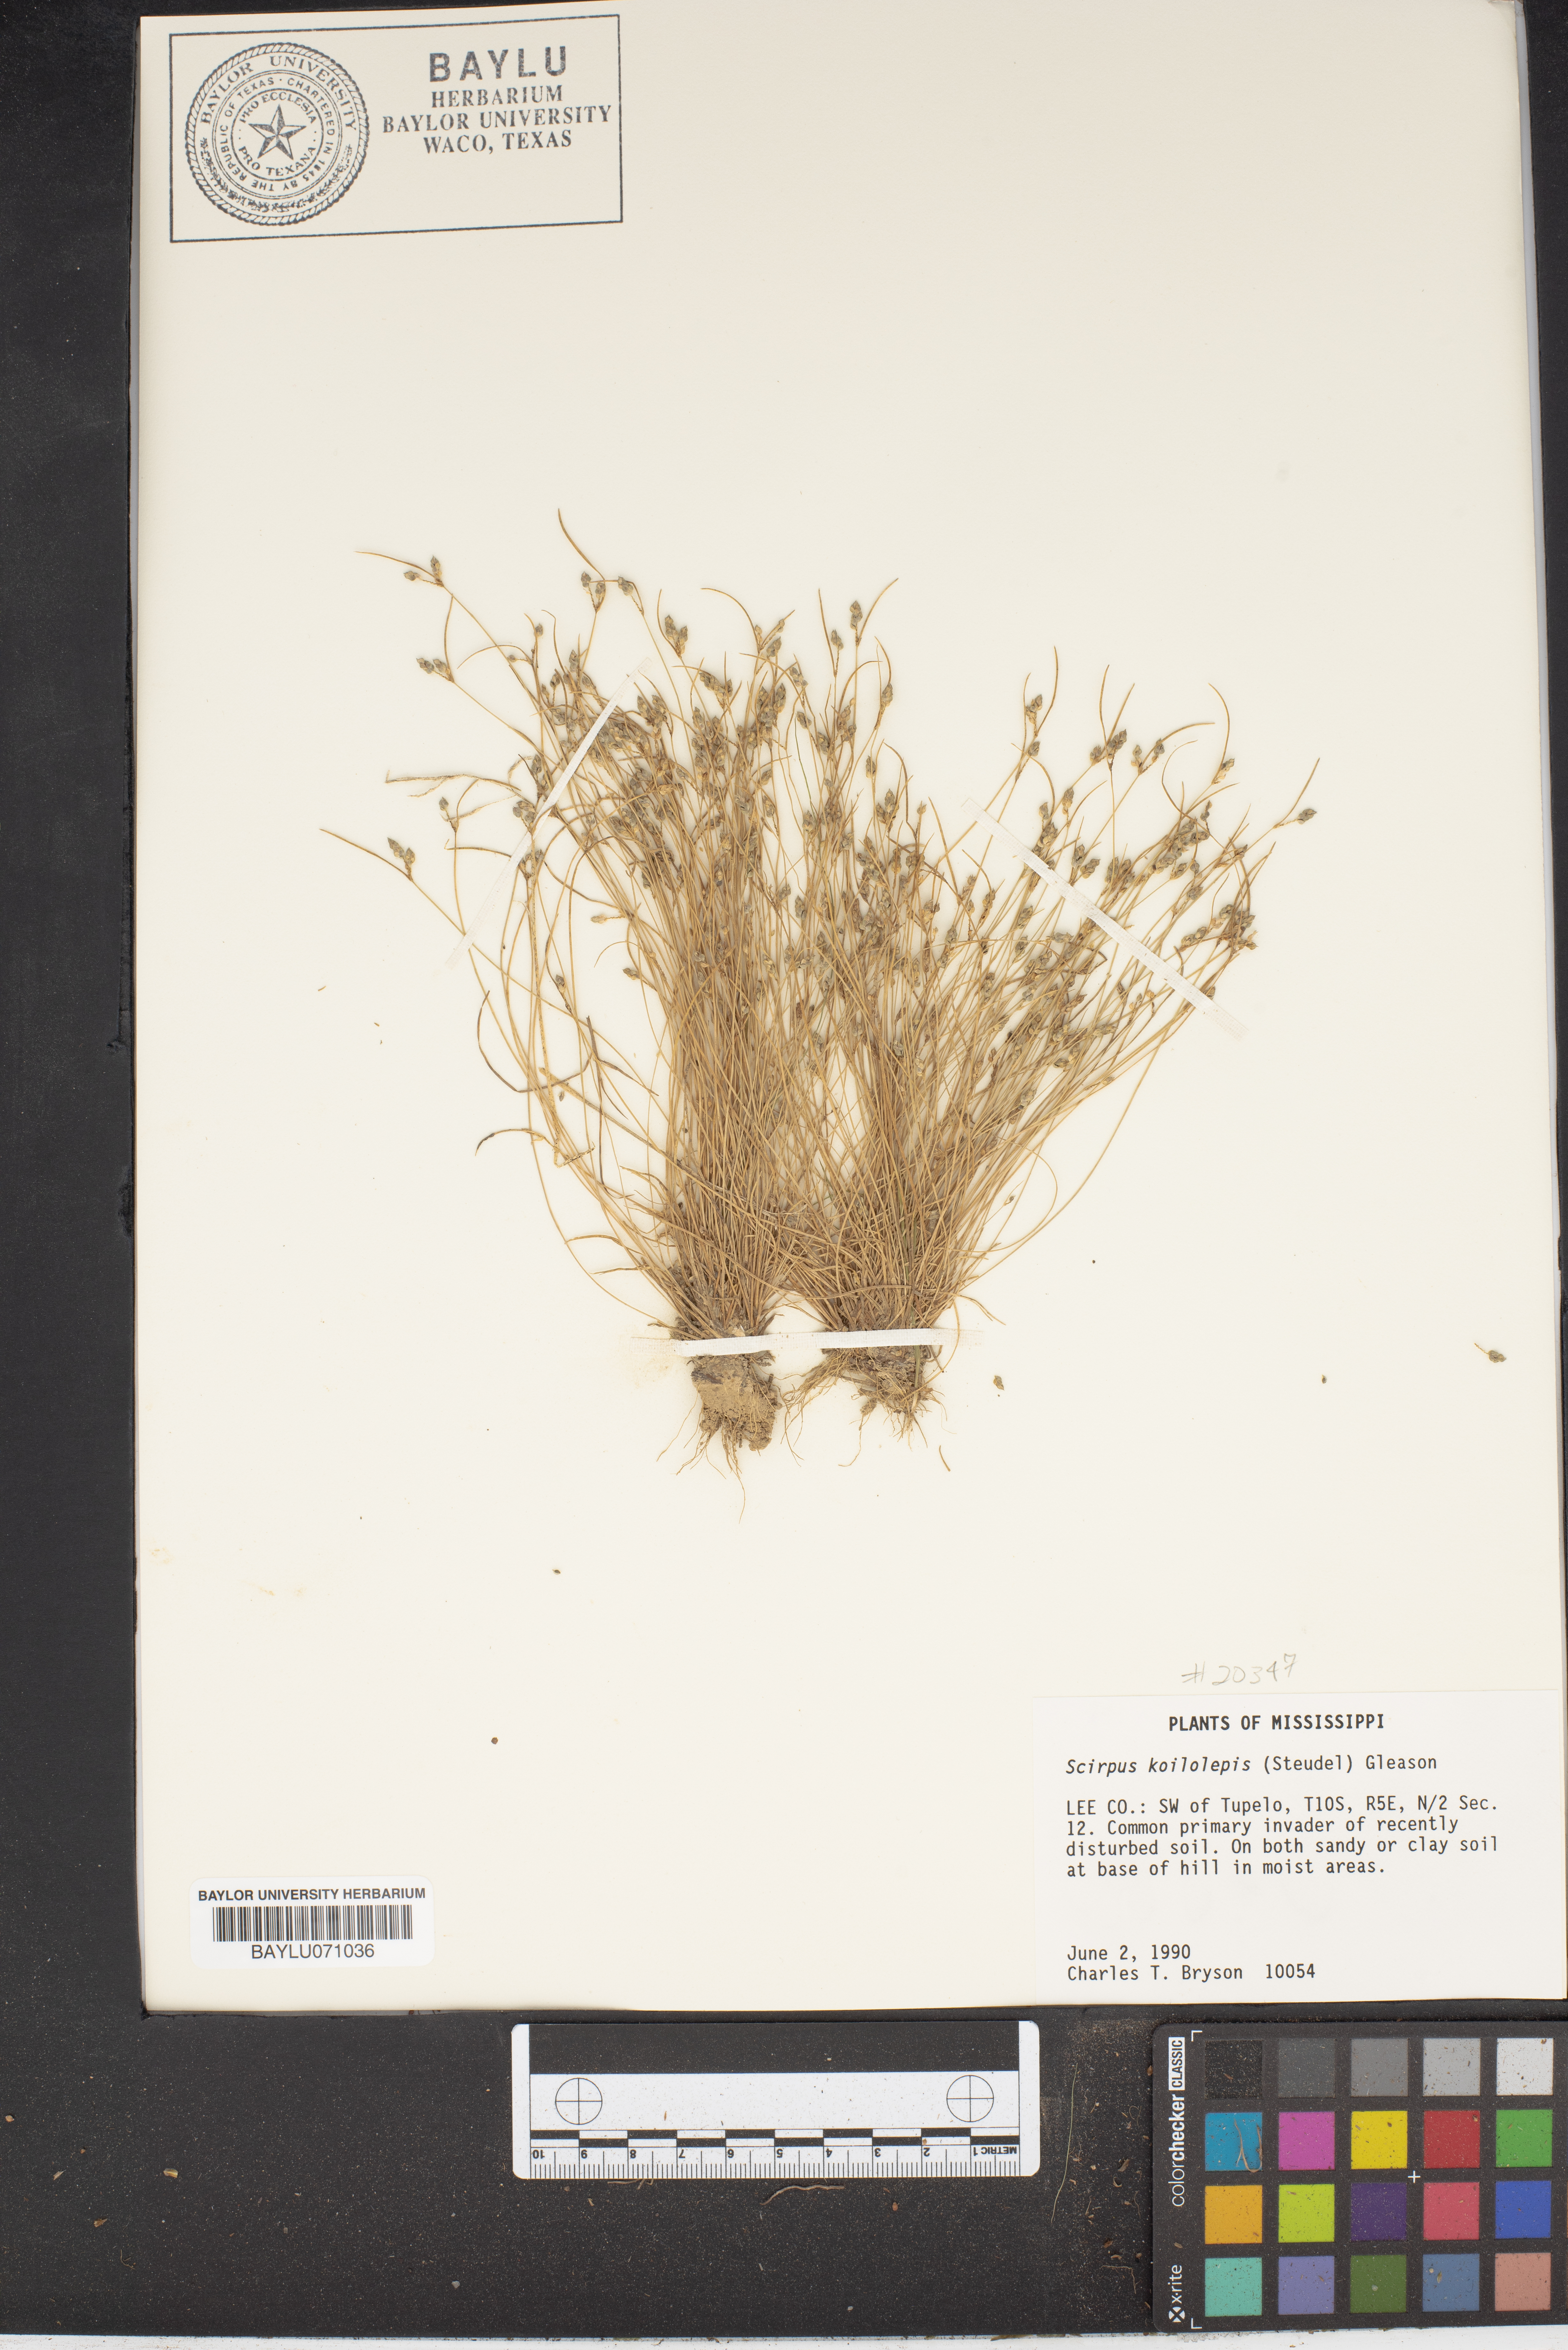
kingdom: Plantae
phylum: Tracheophyta
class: Liliopsida
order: Poales
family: Cyperaceae
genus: Isolepis
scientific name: Isolepis carinata
